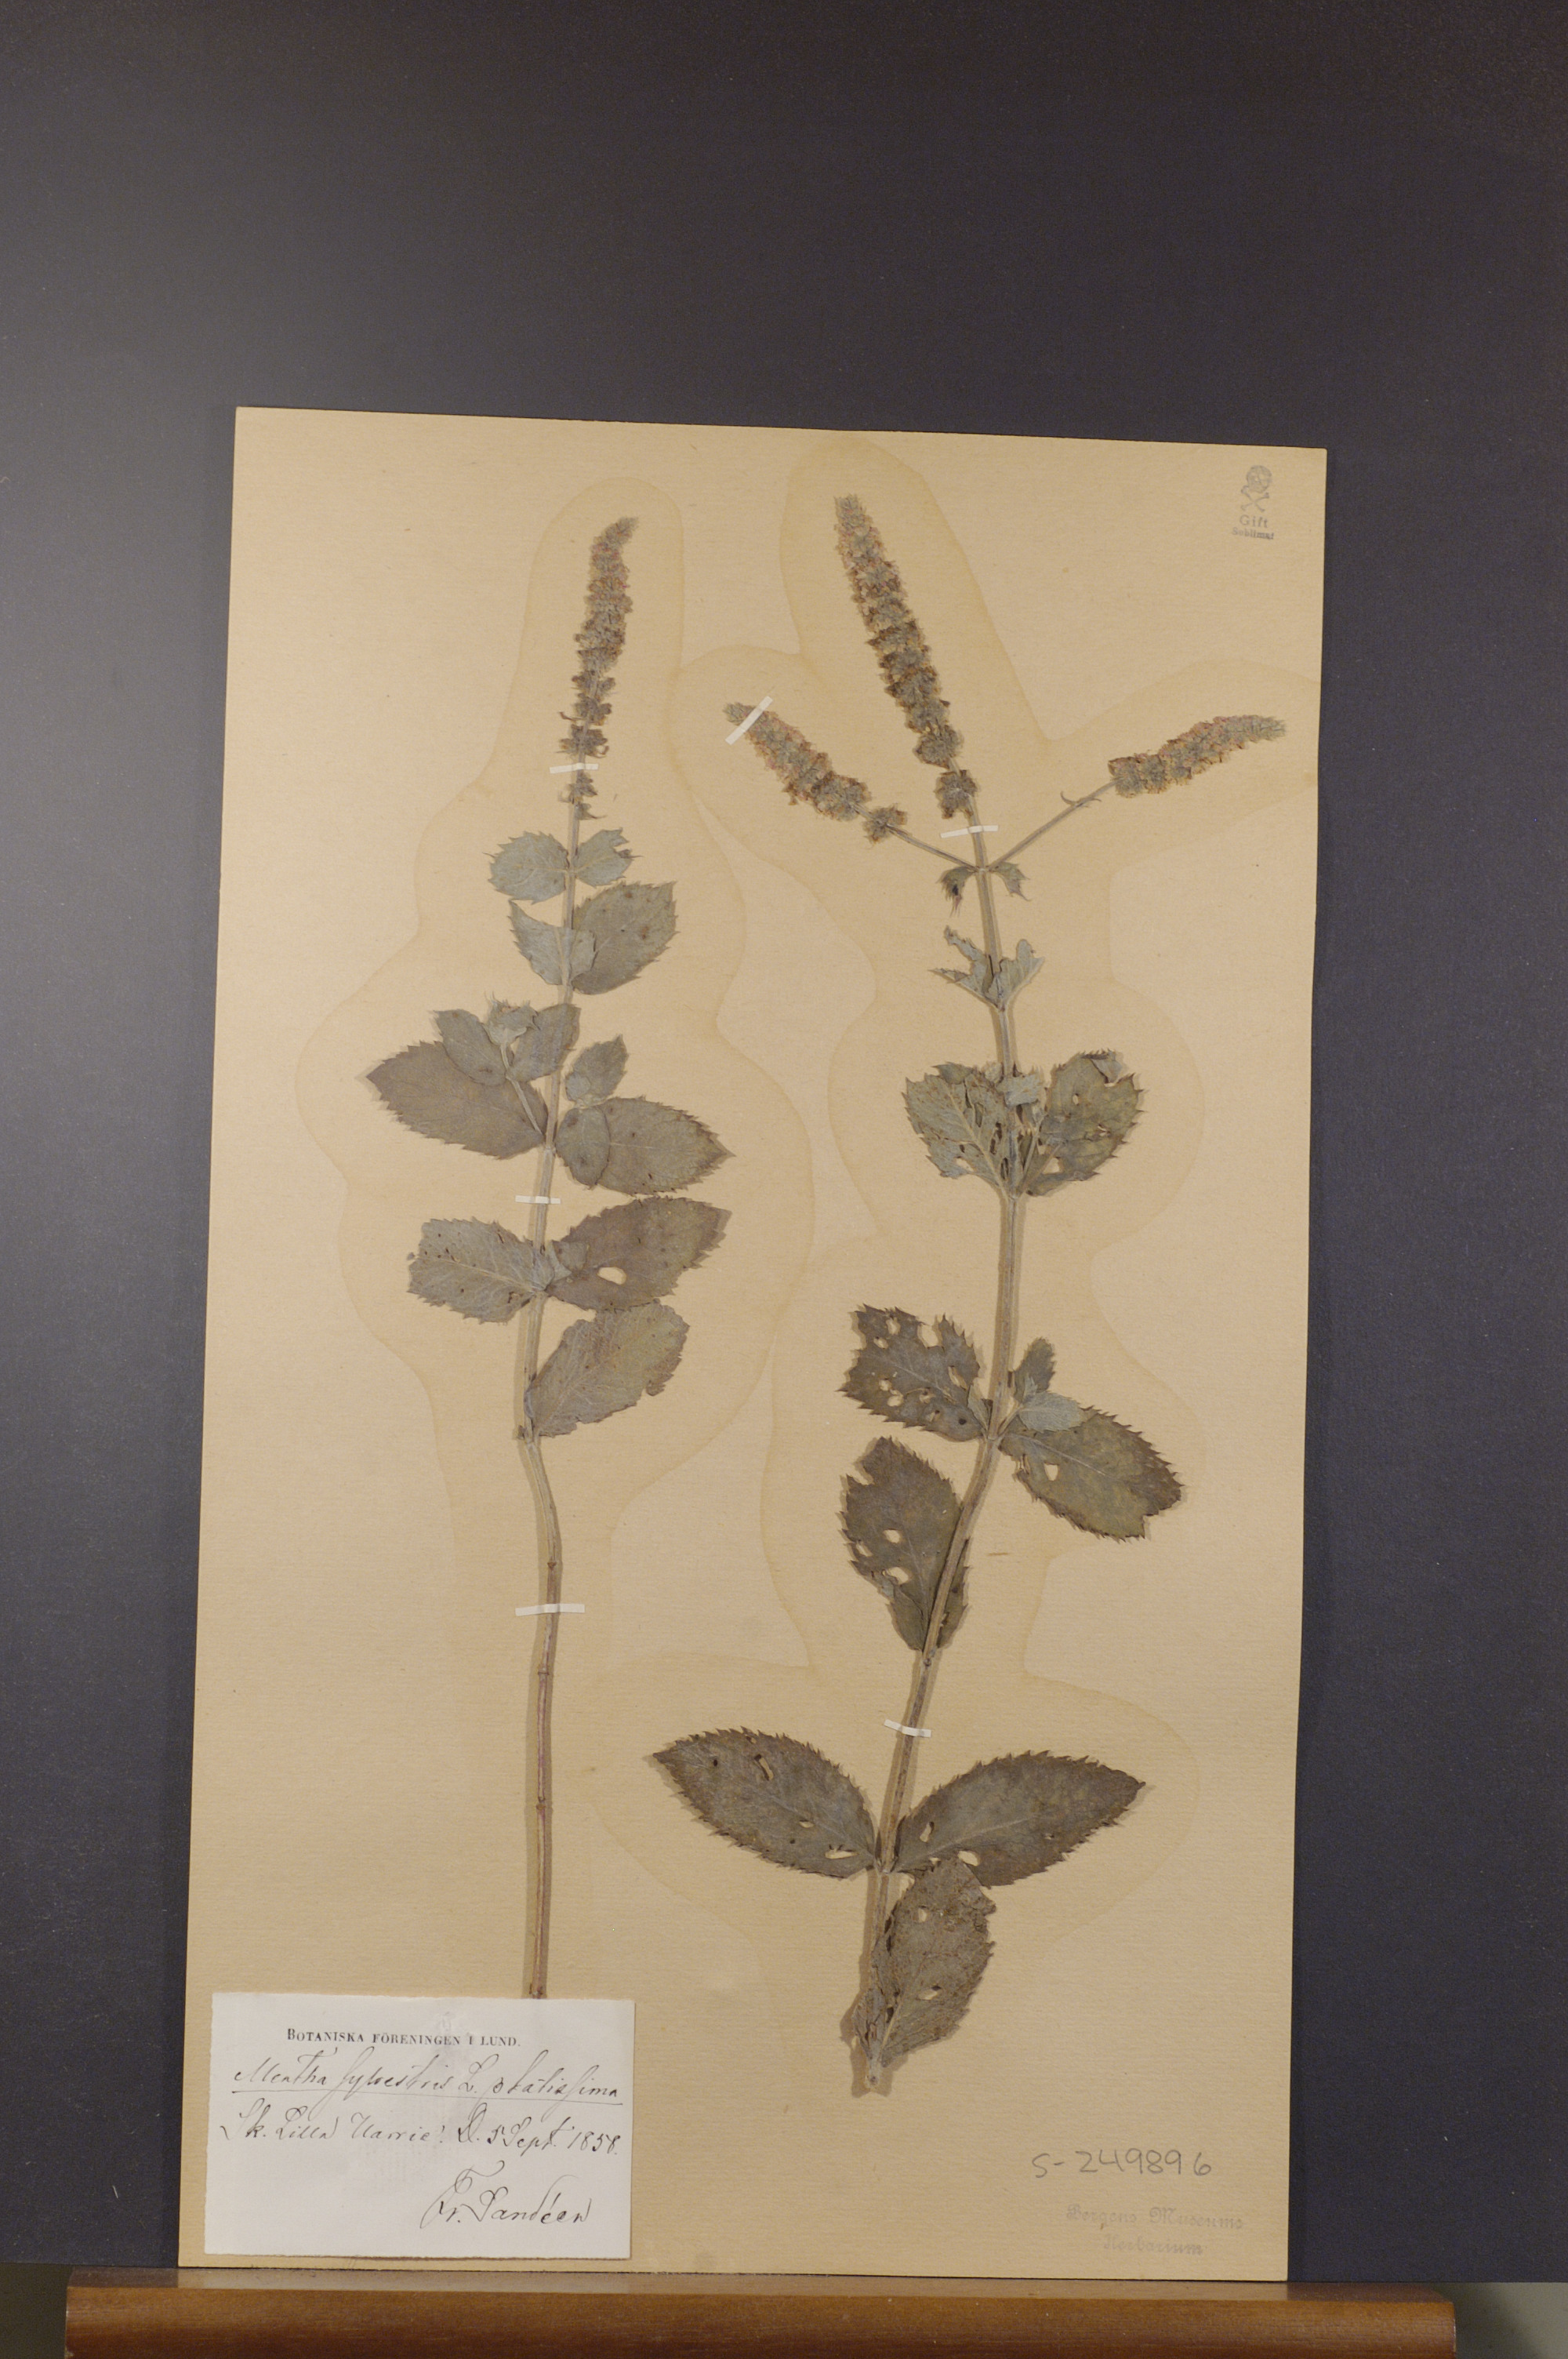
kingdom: Plantae
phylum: Tracheophyta
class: Magnoliopsida
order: Lamiales
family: Lamiaceae
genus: Mentha
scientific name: Mentha longifolia
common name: Horse mint
